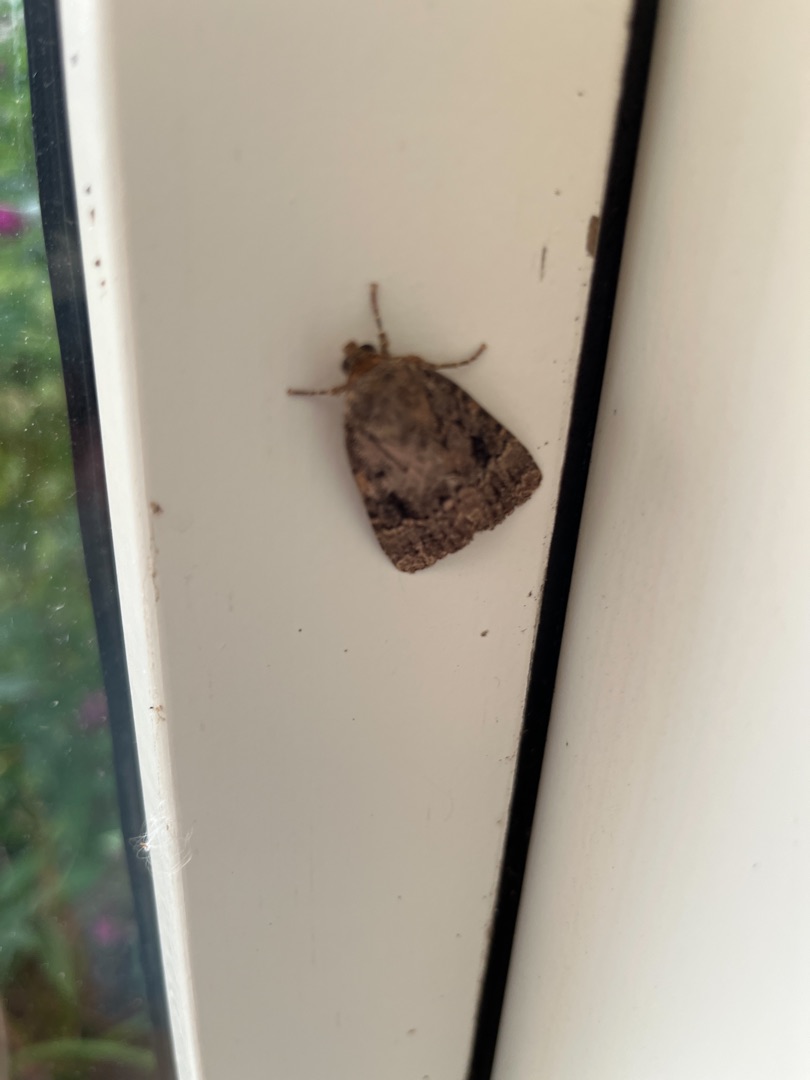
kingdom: Animalia
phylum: Arthropoda
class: Insecta
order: Lepidoptera
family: Noctuidae
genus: Amphipyra
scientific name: Amphipyra pyramidea
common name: Pyramideugle
